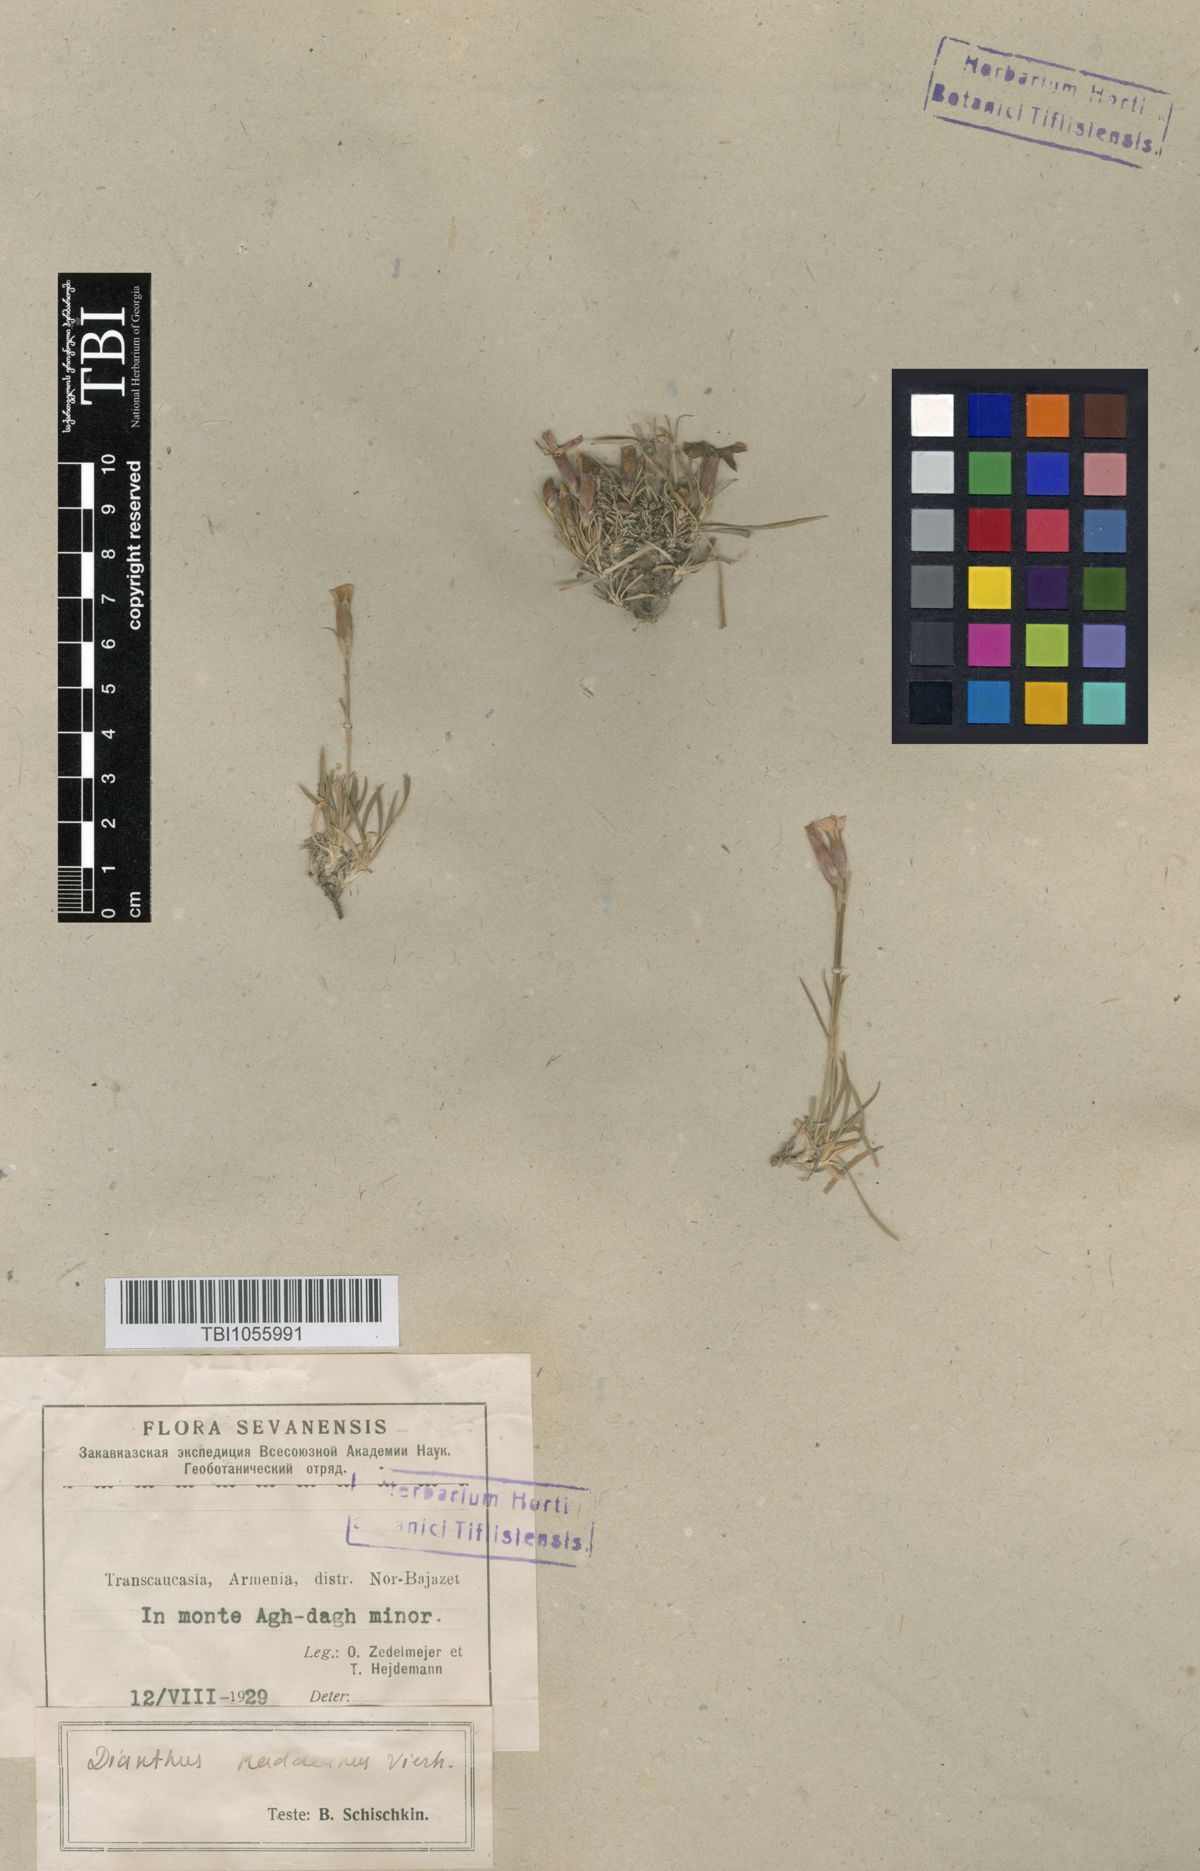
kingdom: Plantae
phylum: Tracheophyta
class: Magnoliopsida
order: Caryophyllales
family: Caryophyllaceae
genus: Dianthus
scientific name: Dianthus raddeanus
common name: Radde's pink
